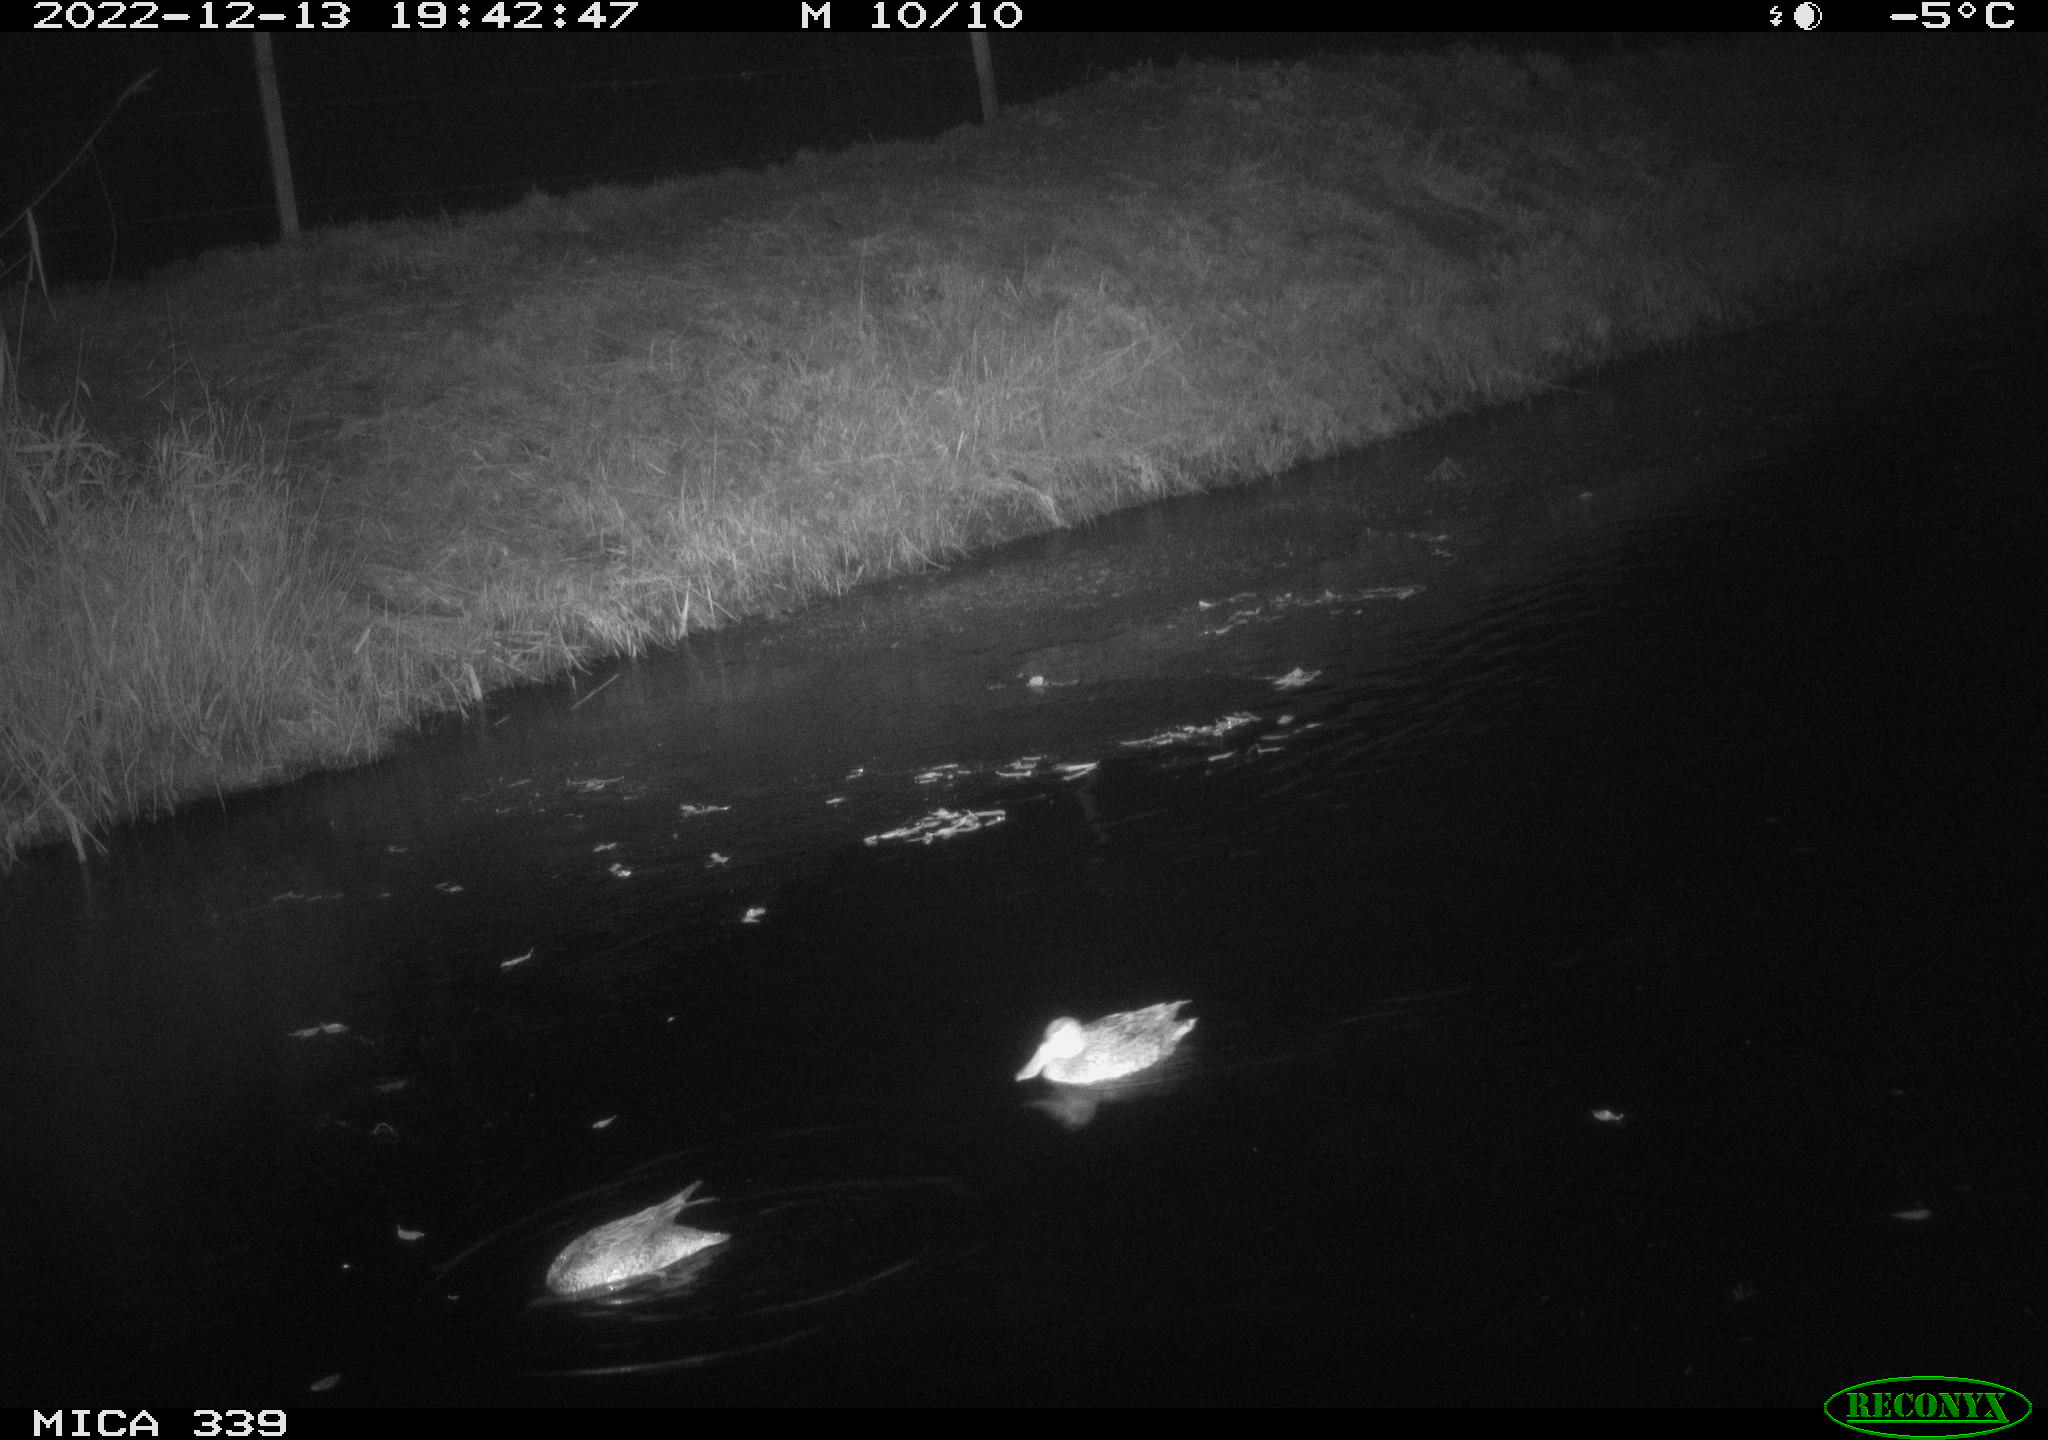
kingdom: Animalia
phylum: Chordata
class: Aves
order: Anseriformes
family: Anatidae
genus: Anas
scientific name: Anas
